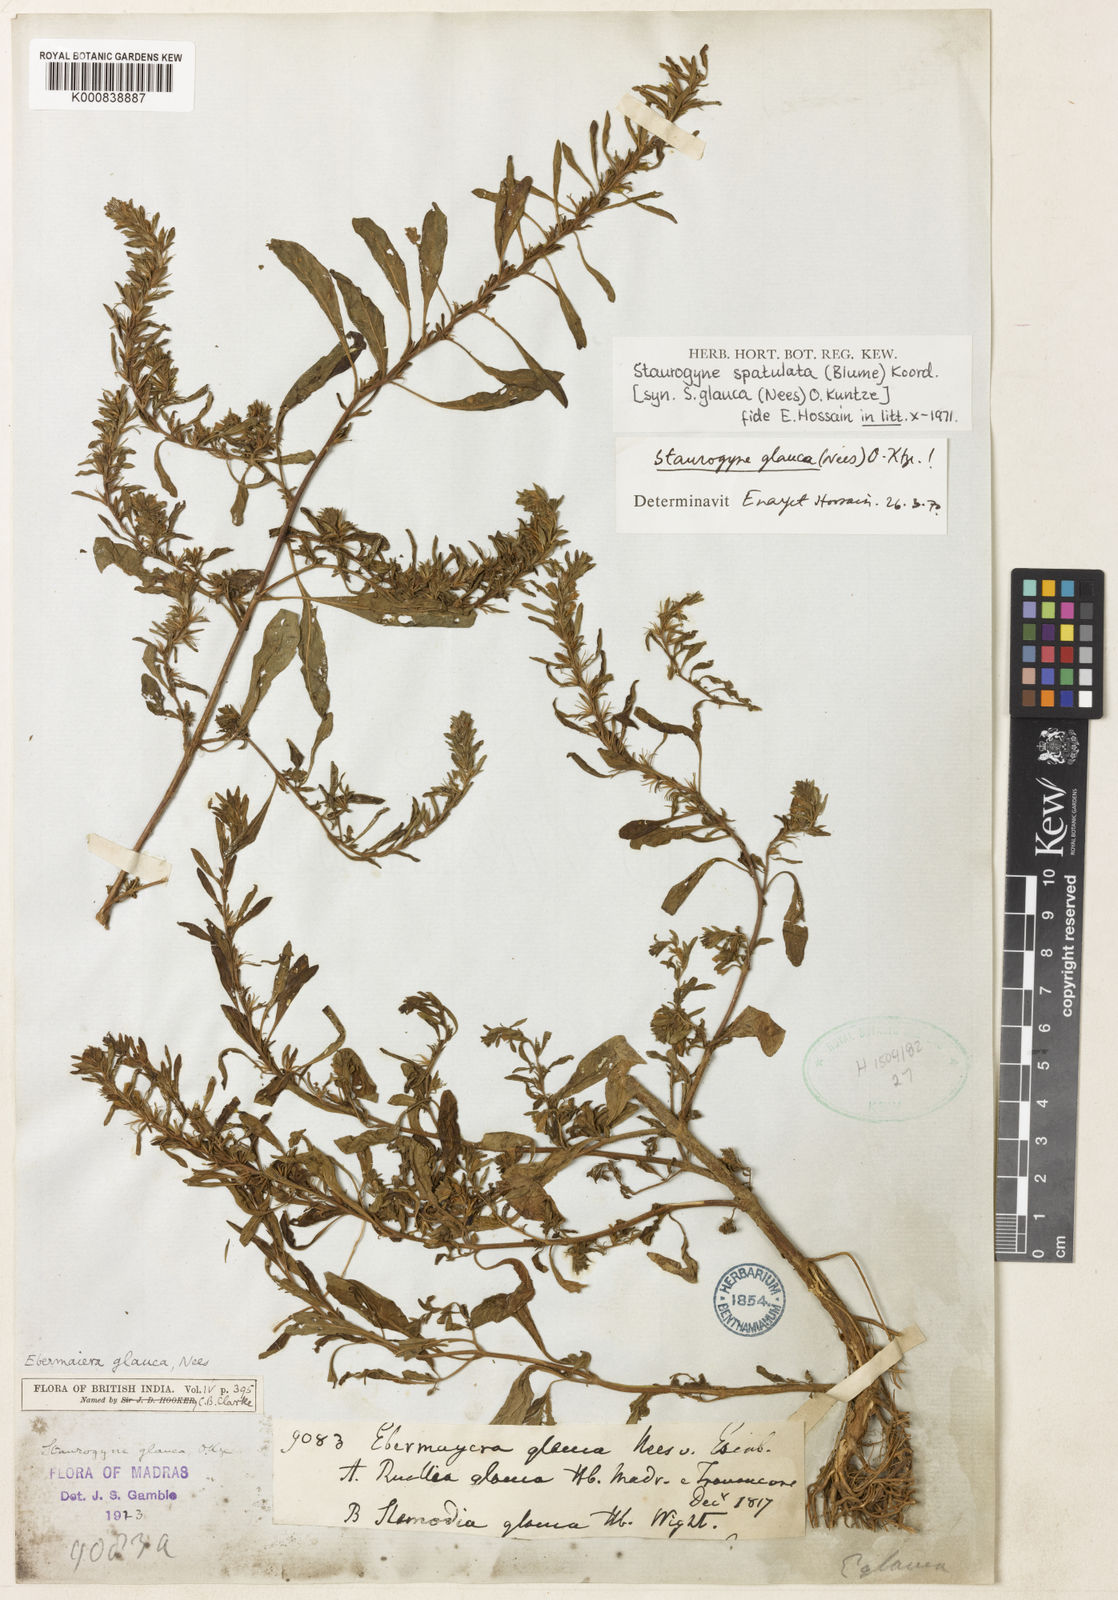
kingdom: Plantae
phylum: Tracheophyta
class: Magnoliopsida
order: Lamiales
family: Acanthaceae
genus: Staurogyne
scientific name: Staurogyne spathulata
